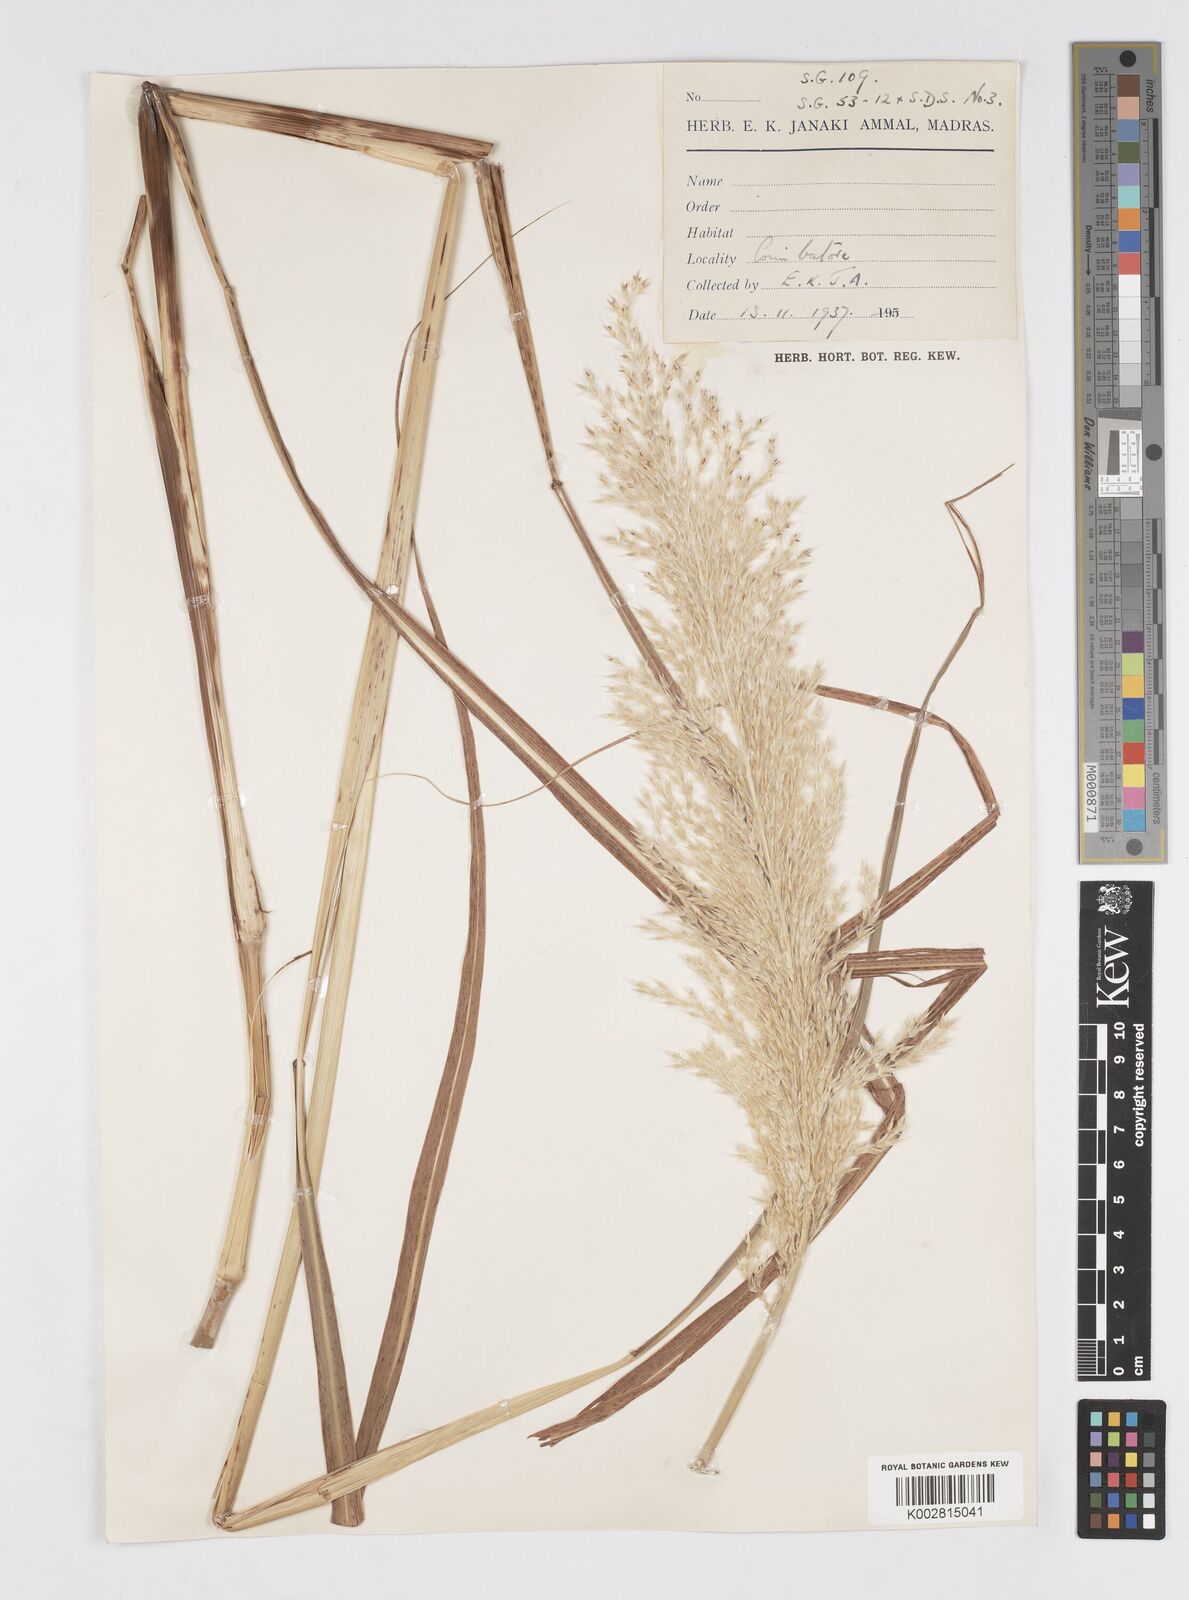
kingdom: Plantae
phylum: Tracheophyta
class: Liliopsida
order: Poales
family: Poaceae
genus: Saccharum
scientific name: Saccharum
